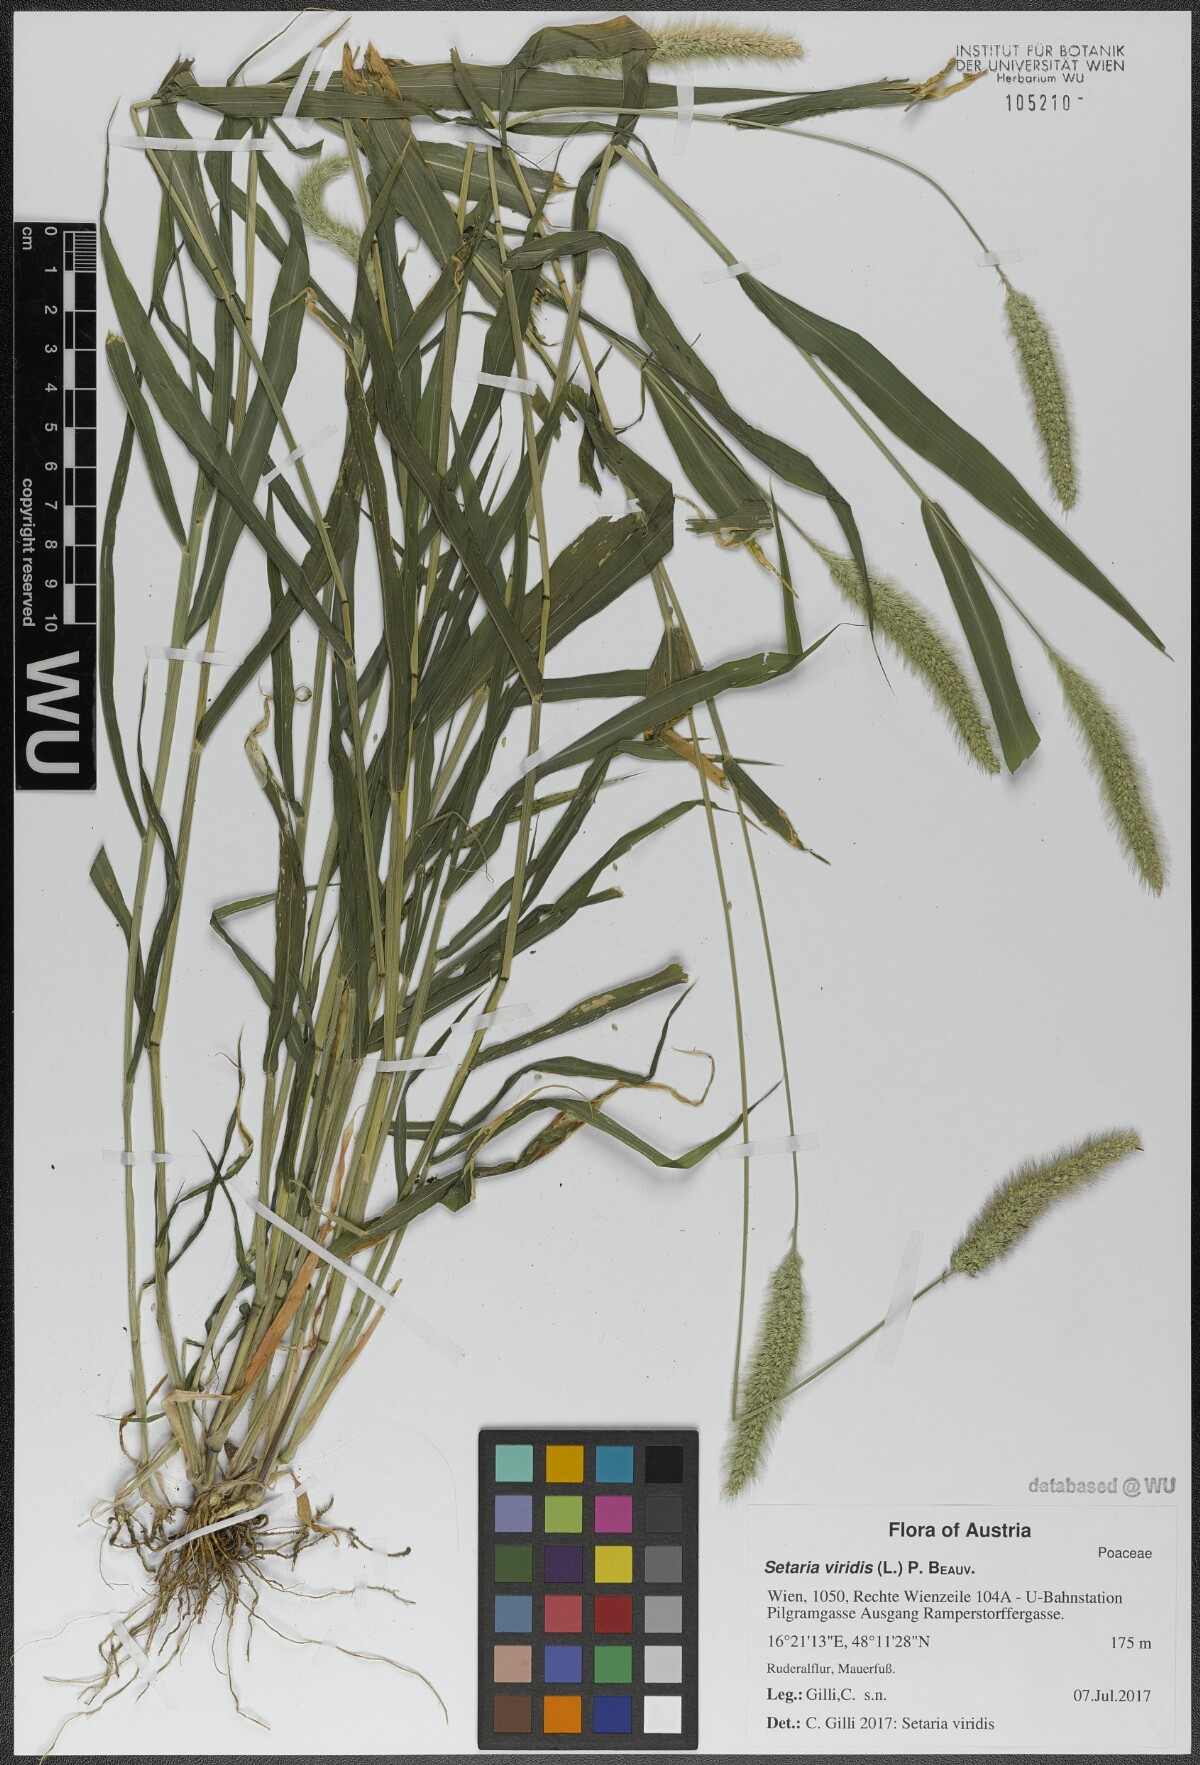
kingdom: Plantae
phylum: Tracheophyta
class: Liliopsida
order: Poales
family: Poaceae
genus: Setaria
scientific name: Setaria viridis
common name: Green bristlegrass
